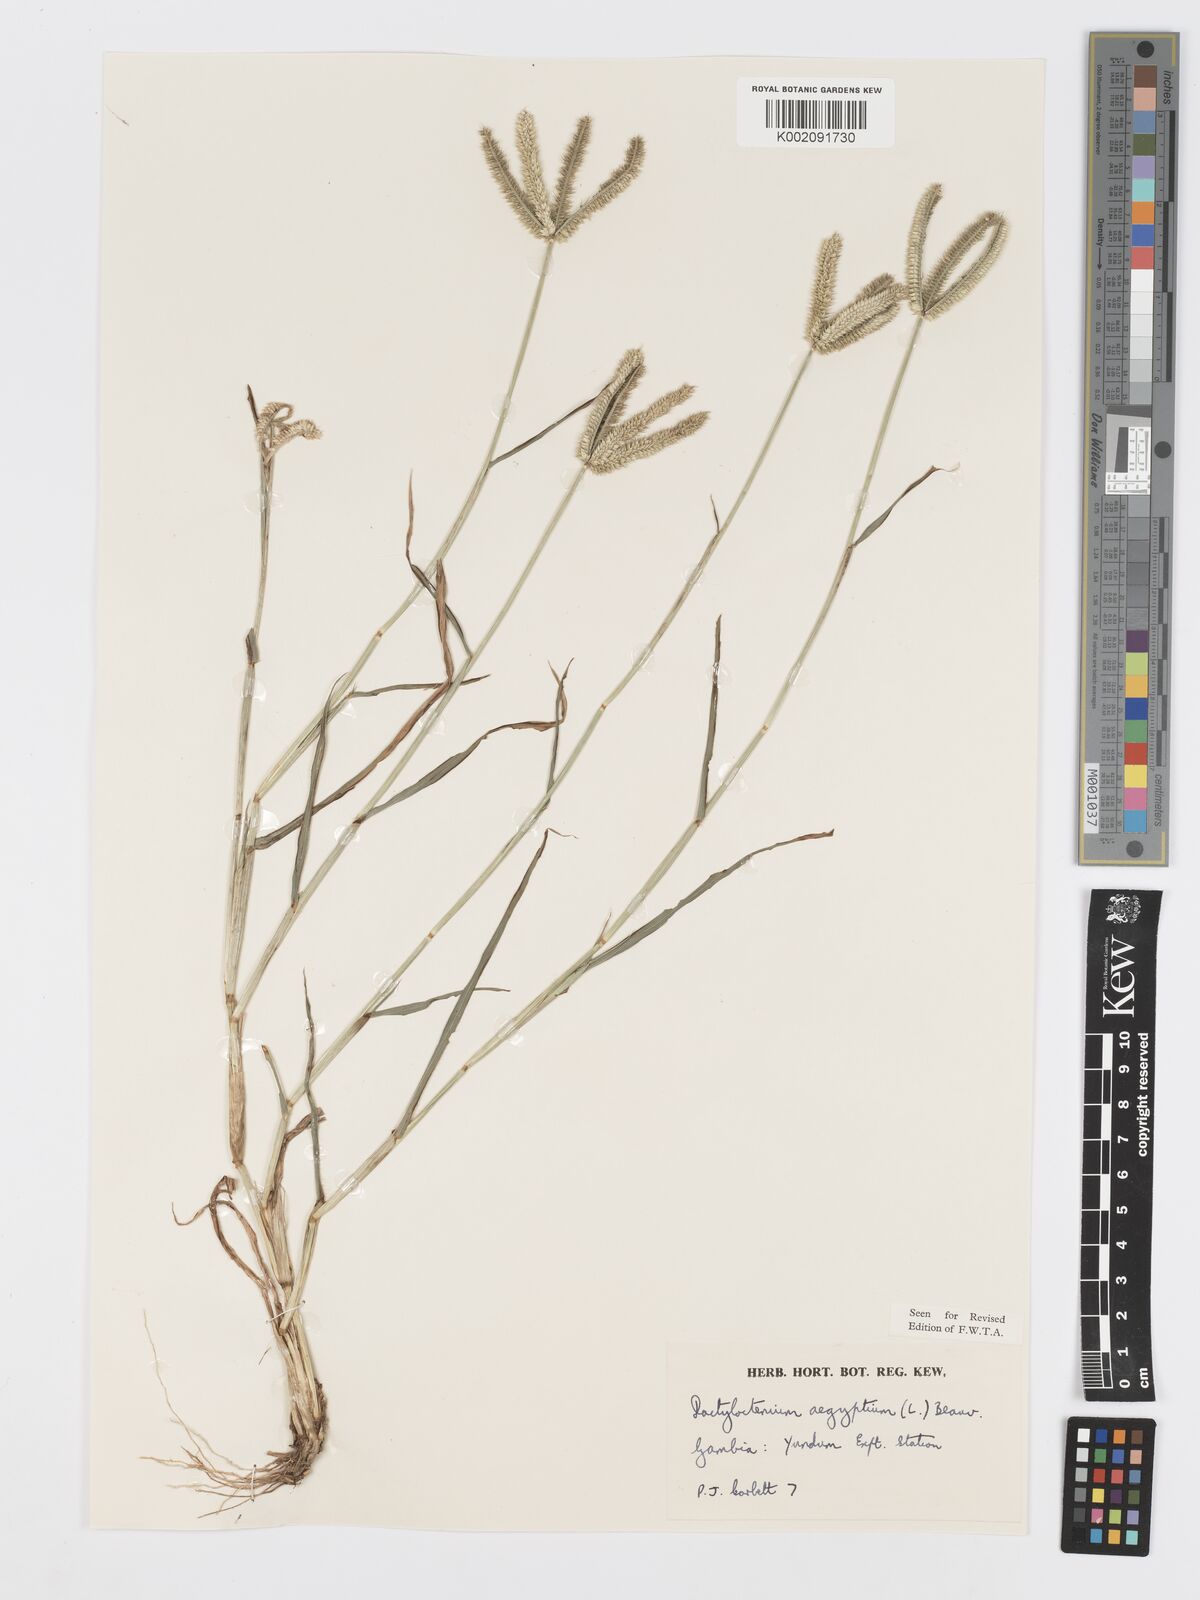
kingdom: Plantae
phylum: Tracheophyta
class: Liliopsida
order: Poales
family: Poaceae
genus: Dactyloctenium
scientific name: Dactyloctenium aegyptium
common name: Egyptian grass
